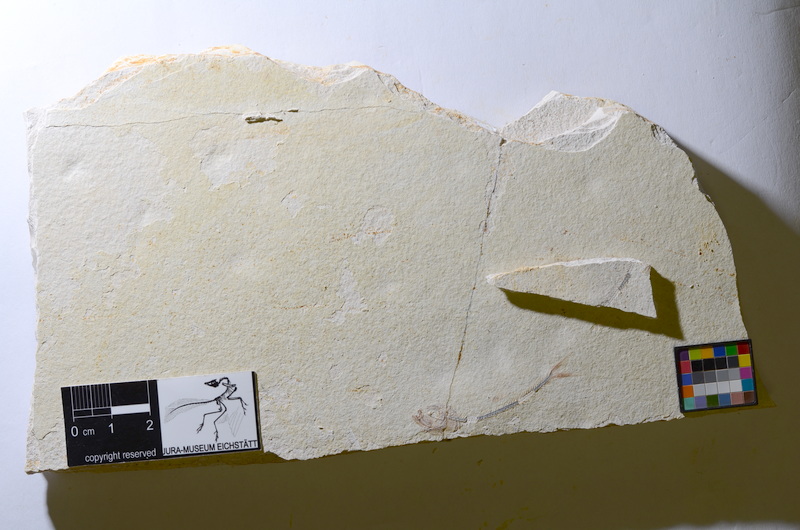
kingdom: Animalia
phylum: Chordata
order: Salmoniformes
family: Orthogonikleithridae
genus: Orthogonikleithrus
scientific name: Orthogonikleithrus hoelli
